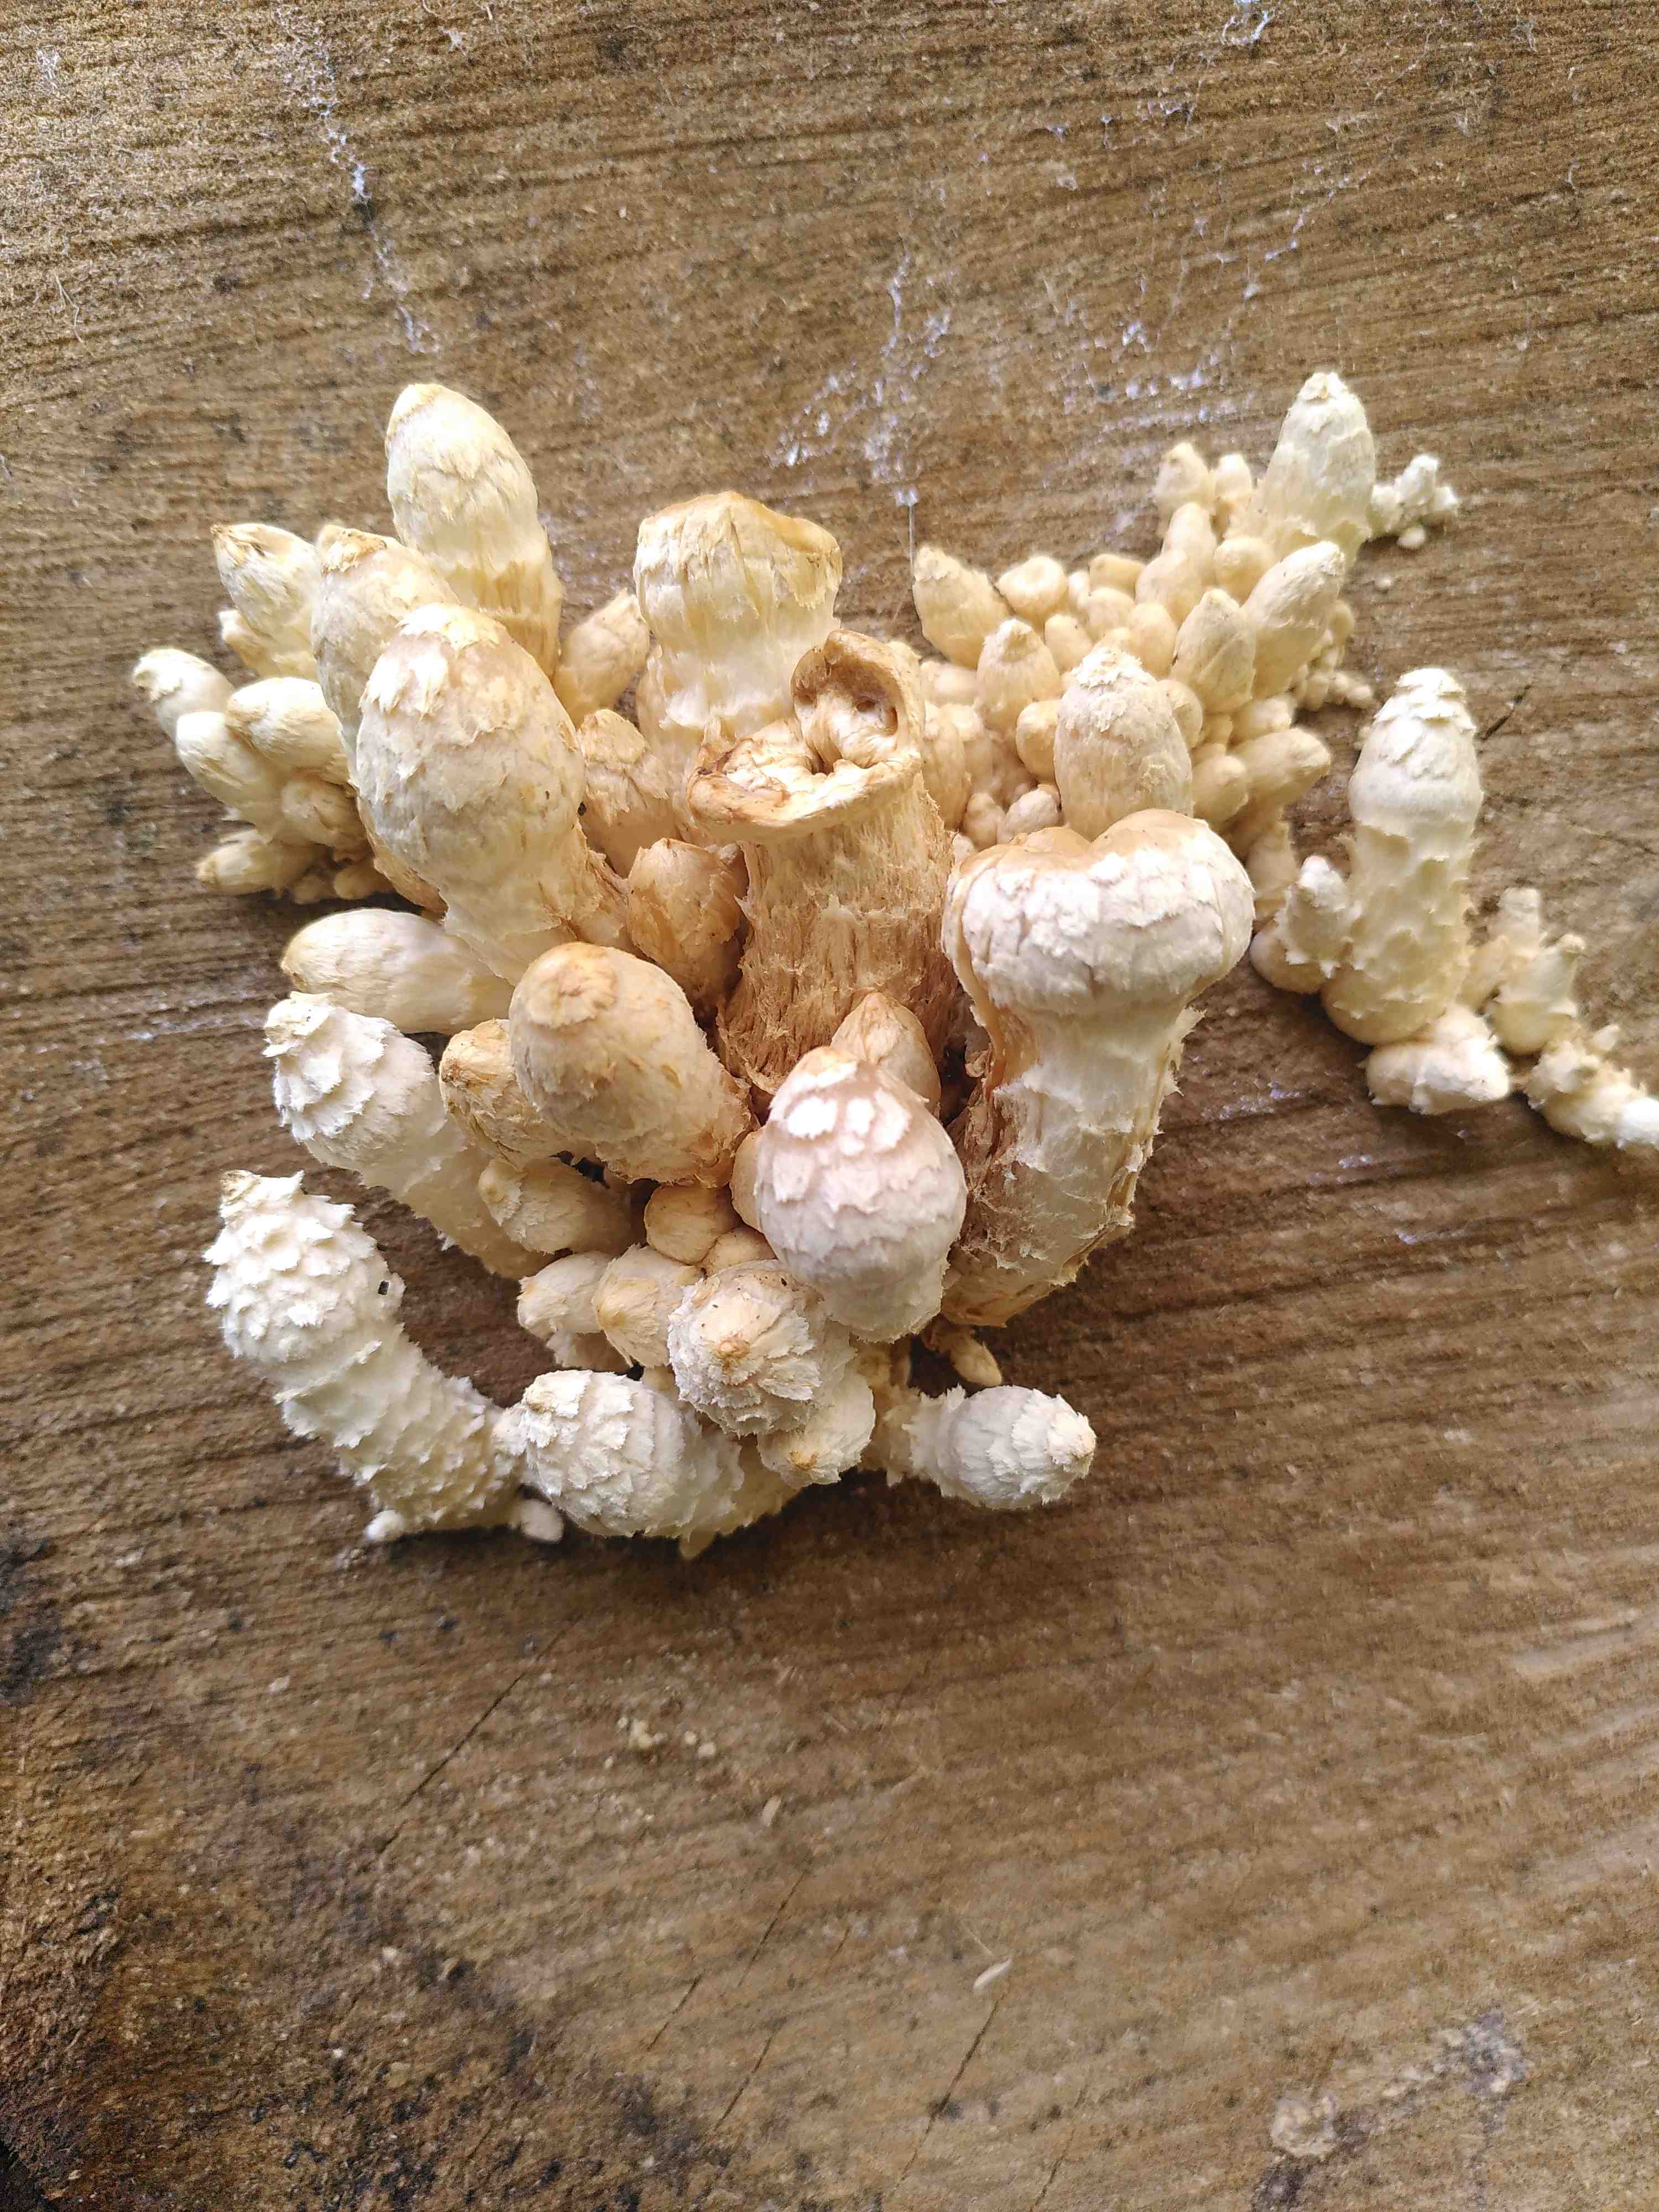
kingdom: Fungi
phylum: Basidiomycota
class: Agaricomycetes
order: Agaricales
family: Strophariaceae
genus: Pholiota
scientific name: Pholiota populnea
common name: poppel-kæmpeskælhat
